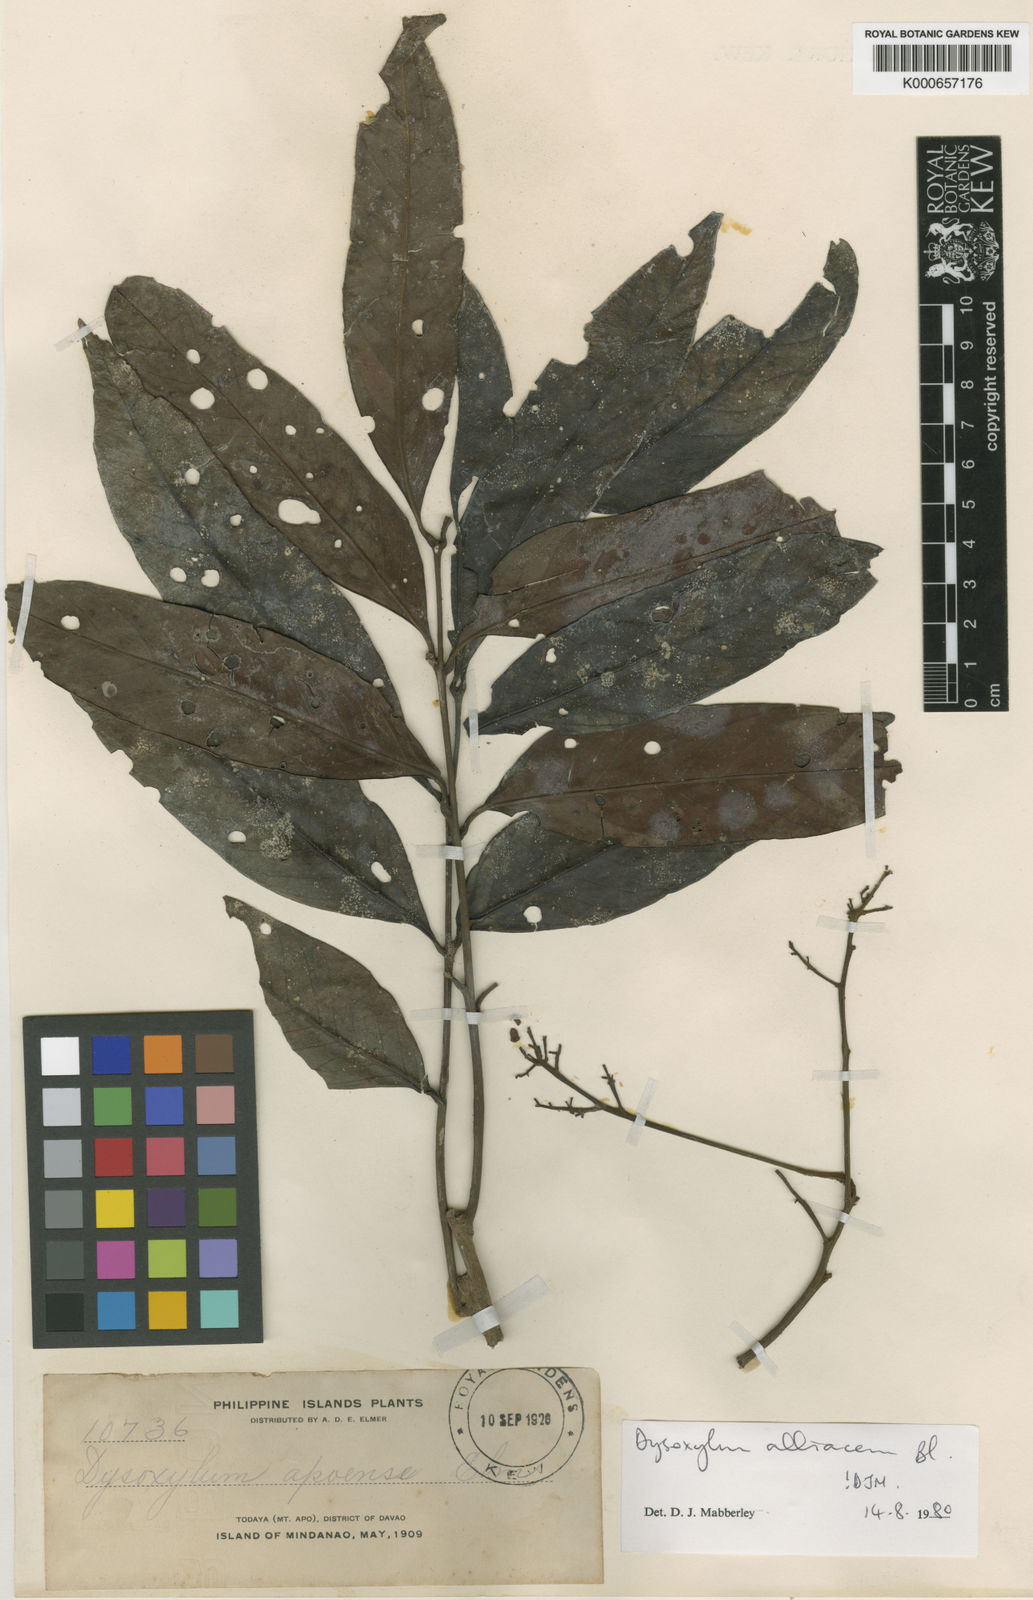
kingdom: Plantae
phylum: Tracheophyta
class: Magnoliopsida
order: Sapindales
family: Meliaceae
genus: Prasoxylon
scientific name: Prasoxylon alliaceum
